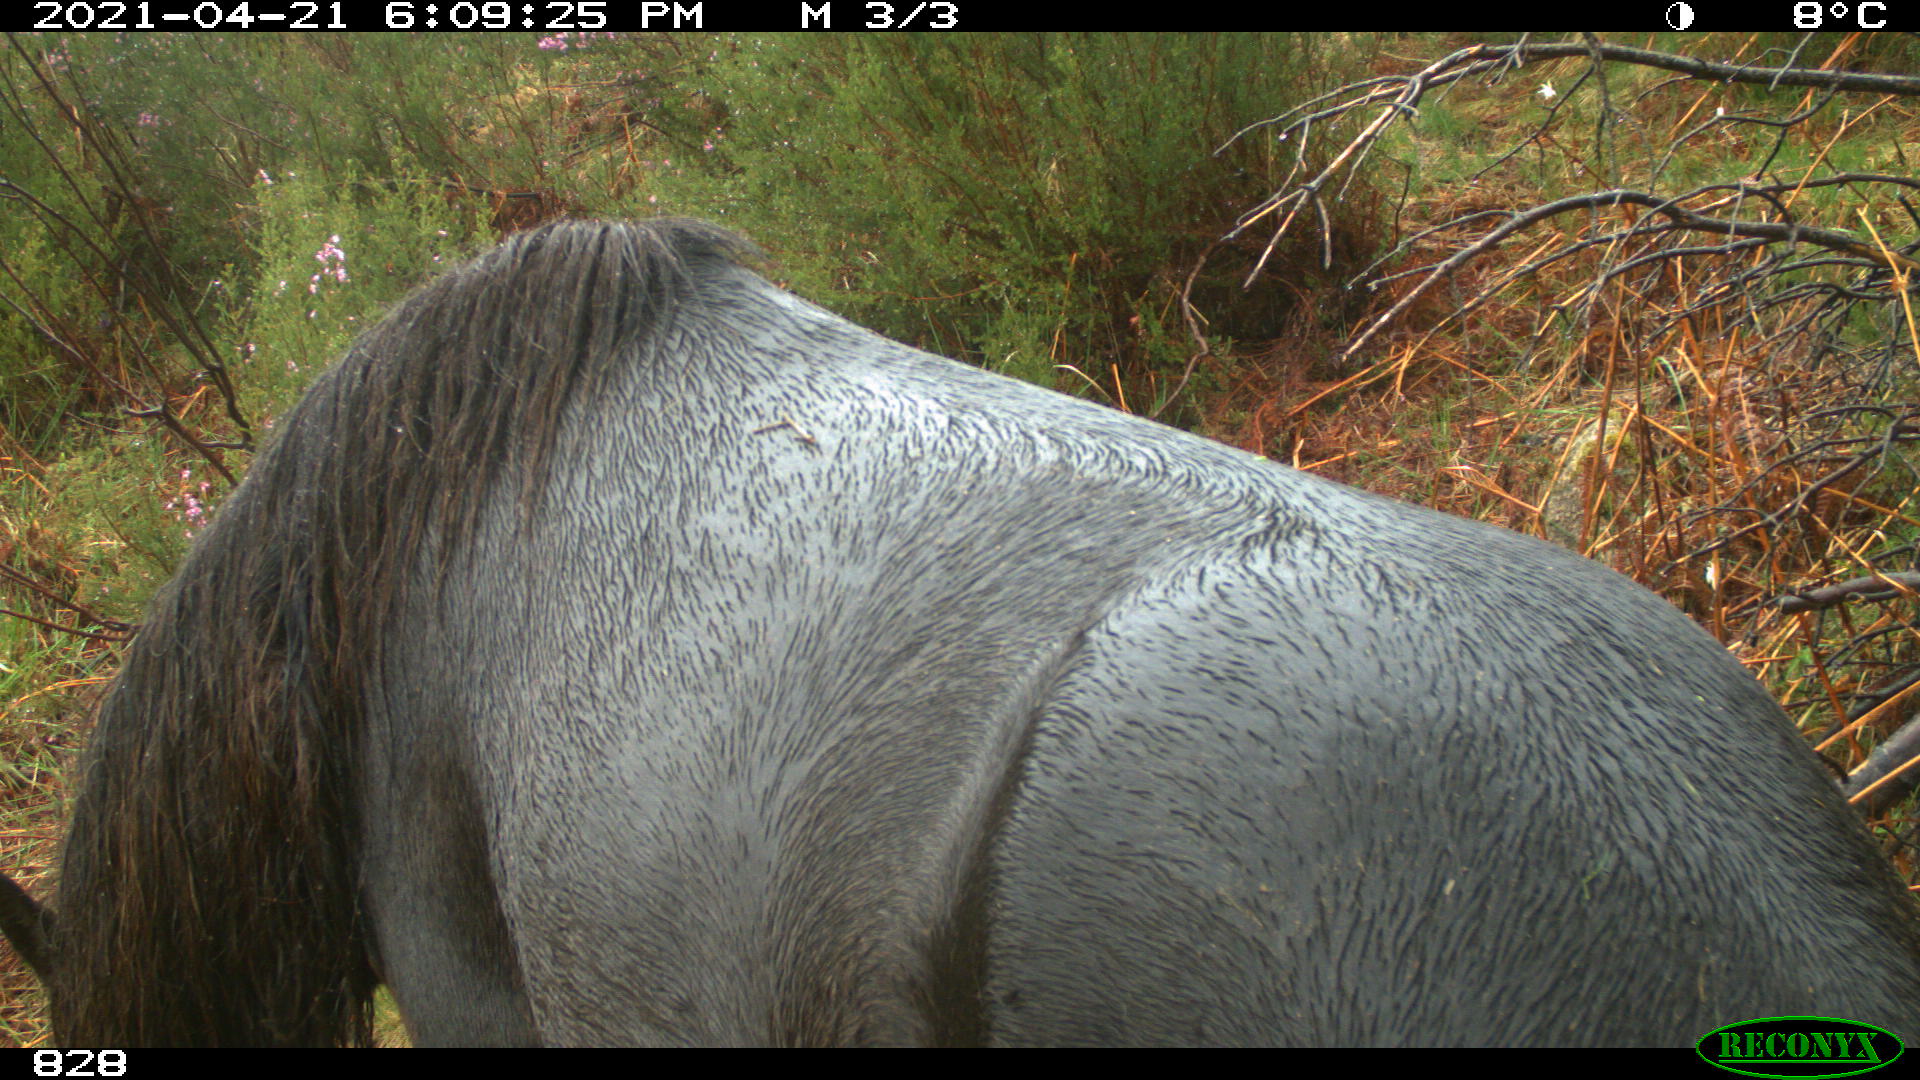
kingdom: Animalia
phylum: Chordata
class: Mammalia
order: Perissodactyla
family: Equidae
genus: Equus
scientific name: Equus caballus
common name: Horse
